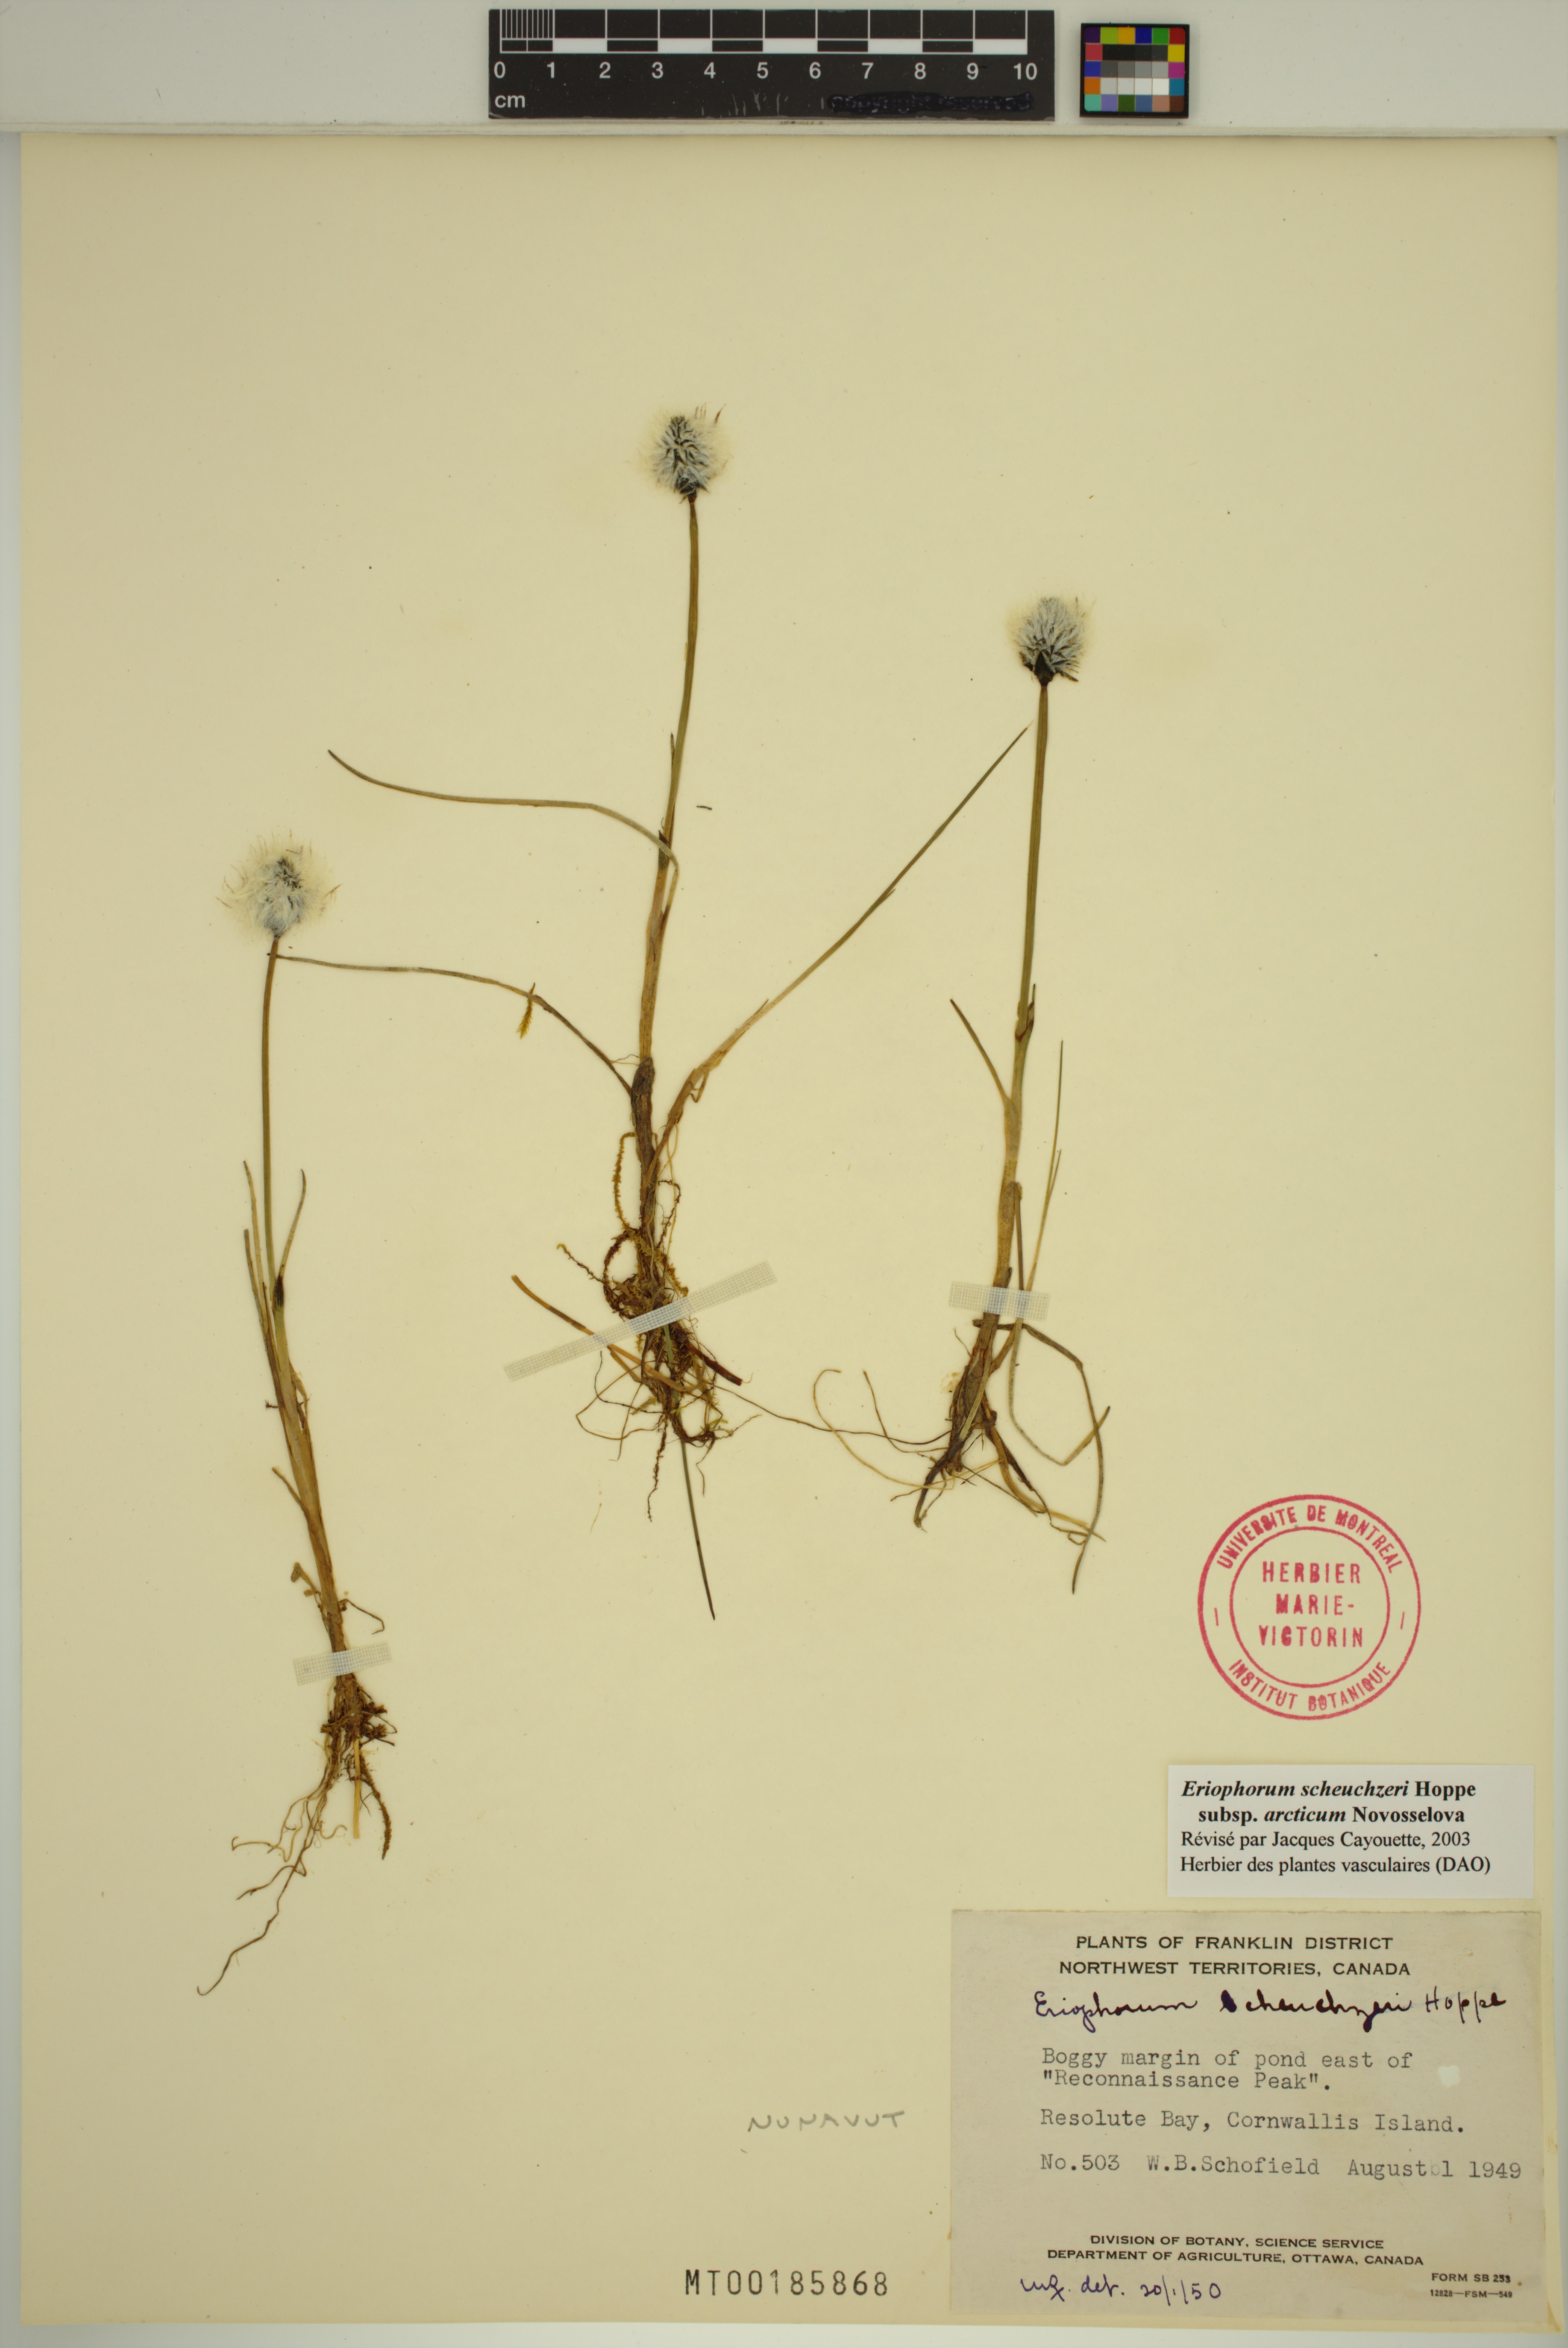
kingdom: Plantae
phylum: Tracheophyta
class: Liliopsida
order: Poales
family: Cyperaceae
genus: Eriophorum
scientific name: Eriophorum scheuchzeri
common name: Scheuchzer's cottongrass
